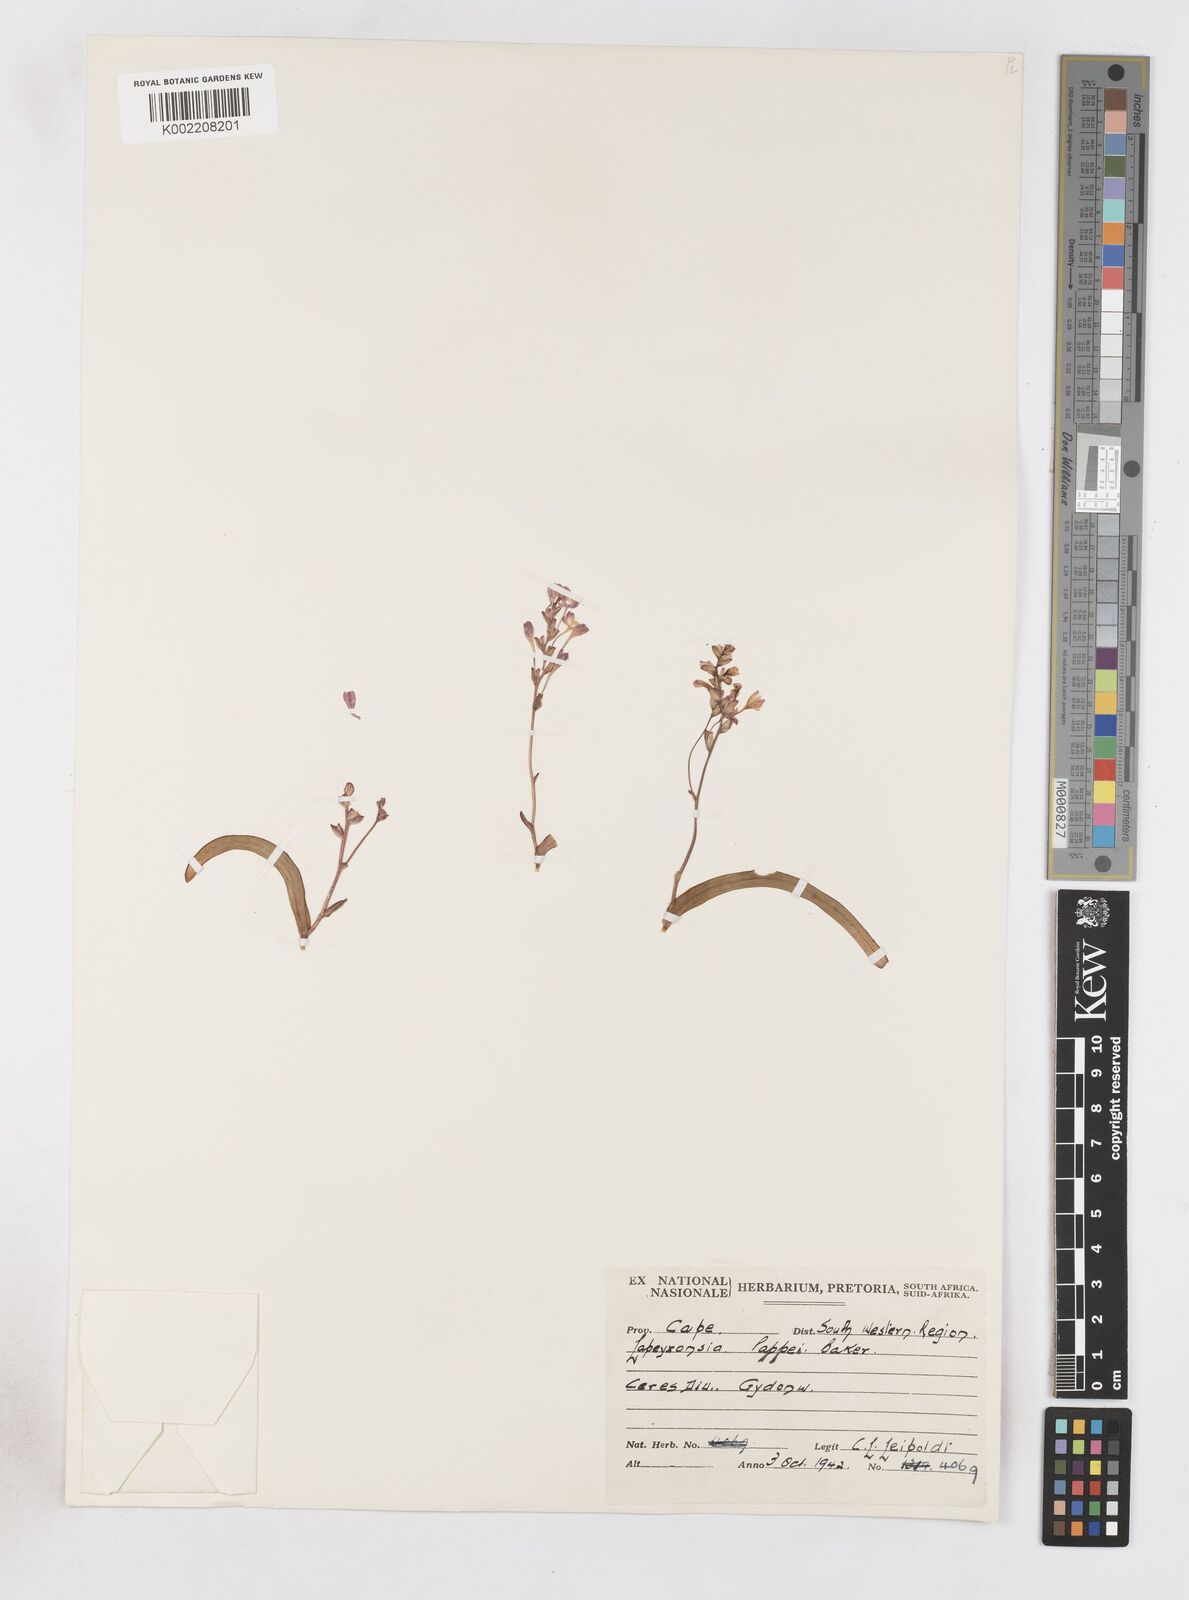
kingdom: Plantae
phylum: Tracheophyta
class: Liliopsida
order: Asparagales
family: Iridaceae
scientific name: Iridaceae
